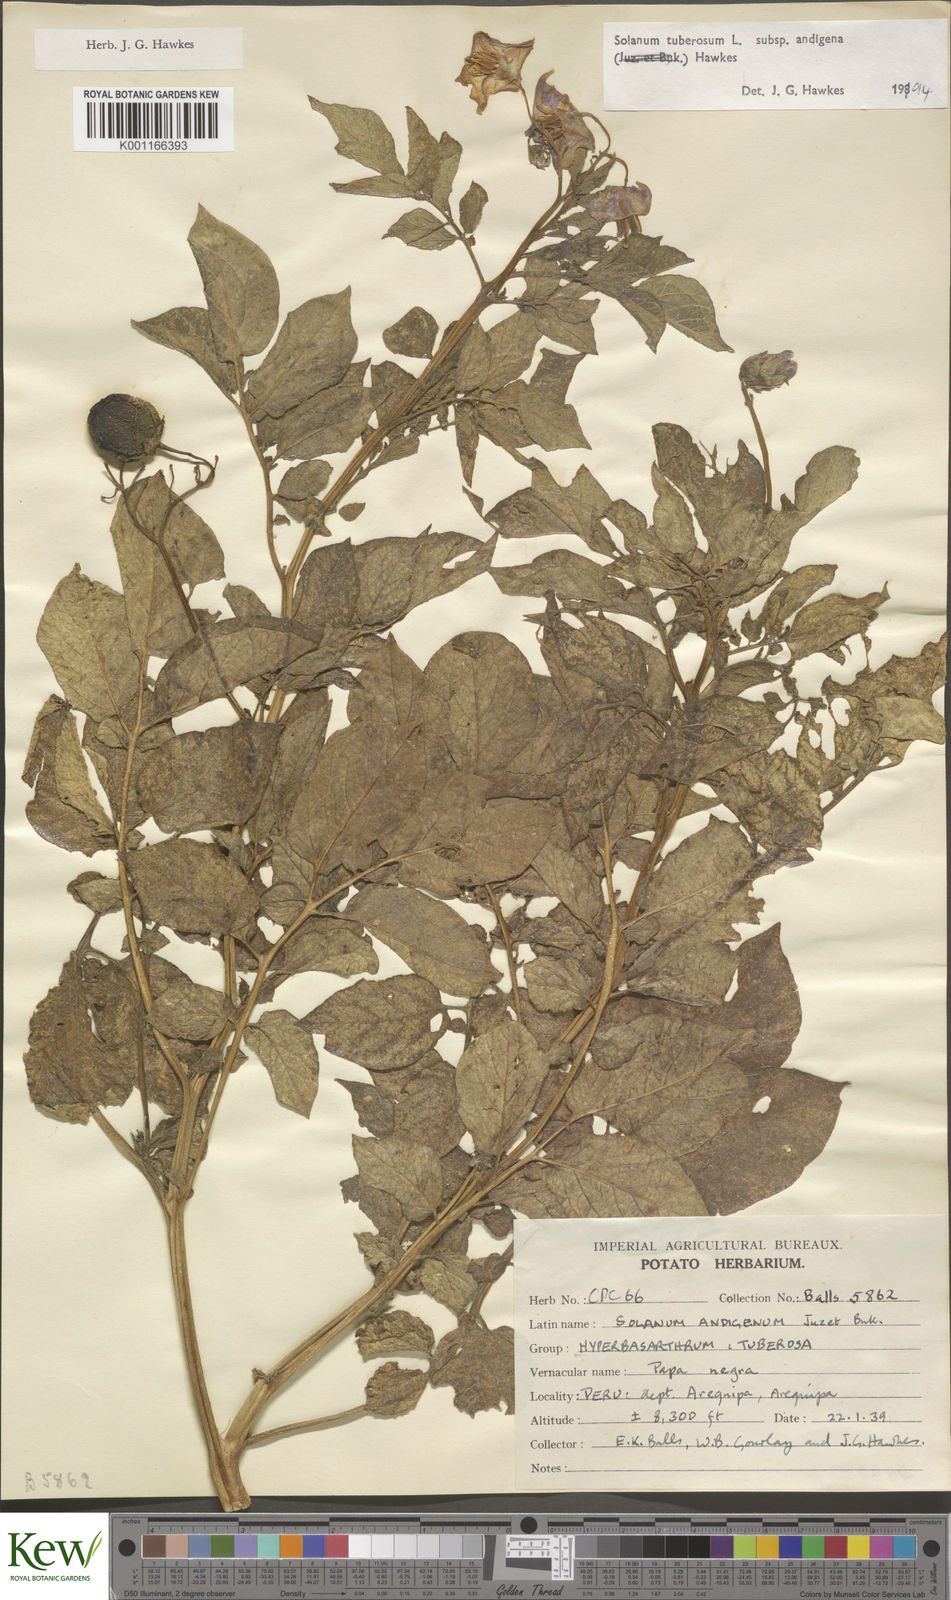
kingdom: Plantae
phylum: Tracheophyta
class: Magnoliopsida
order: Solanales
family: Solanaceae
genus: Solanum
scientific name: Solanum tuberosum
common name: Potato
